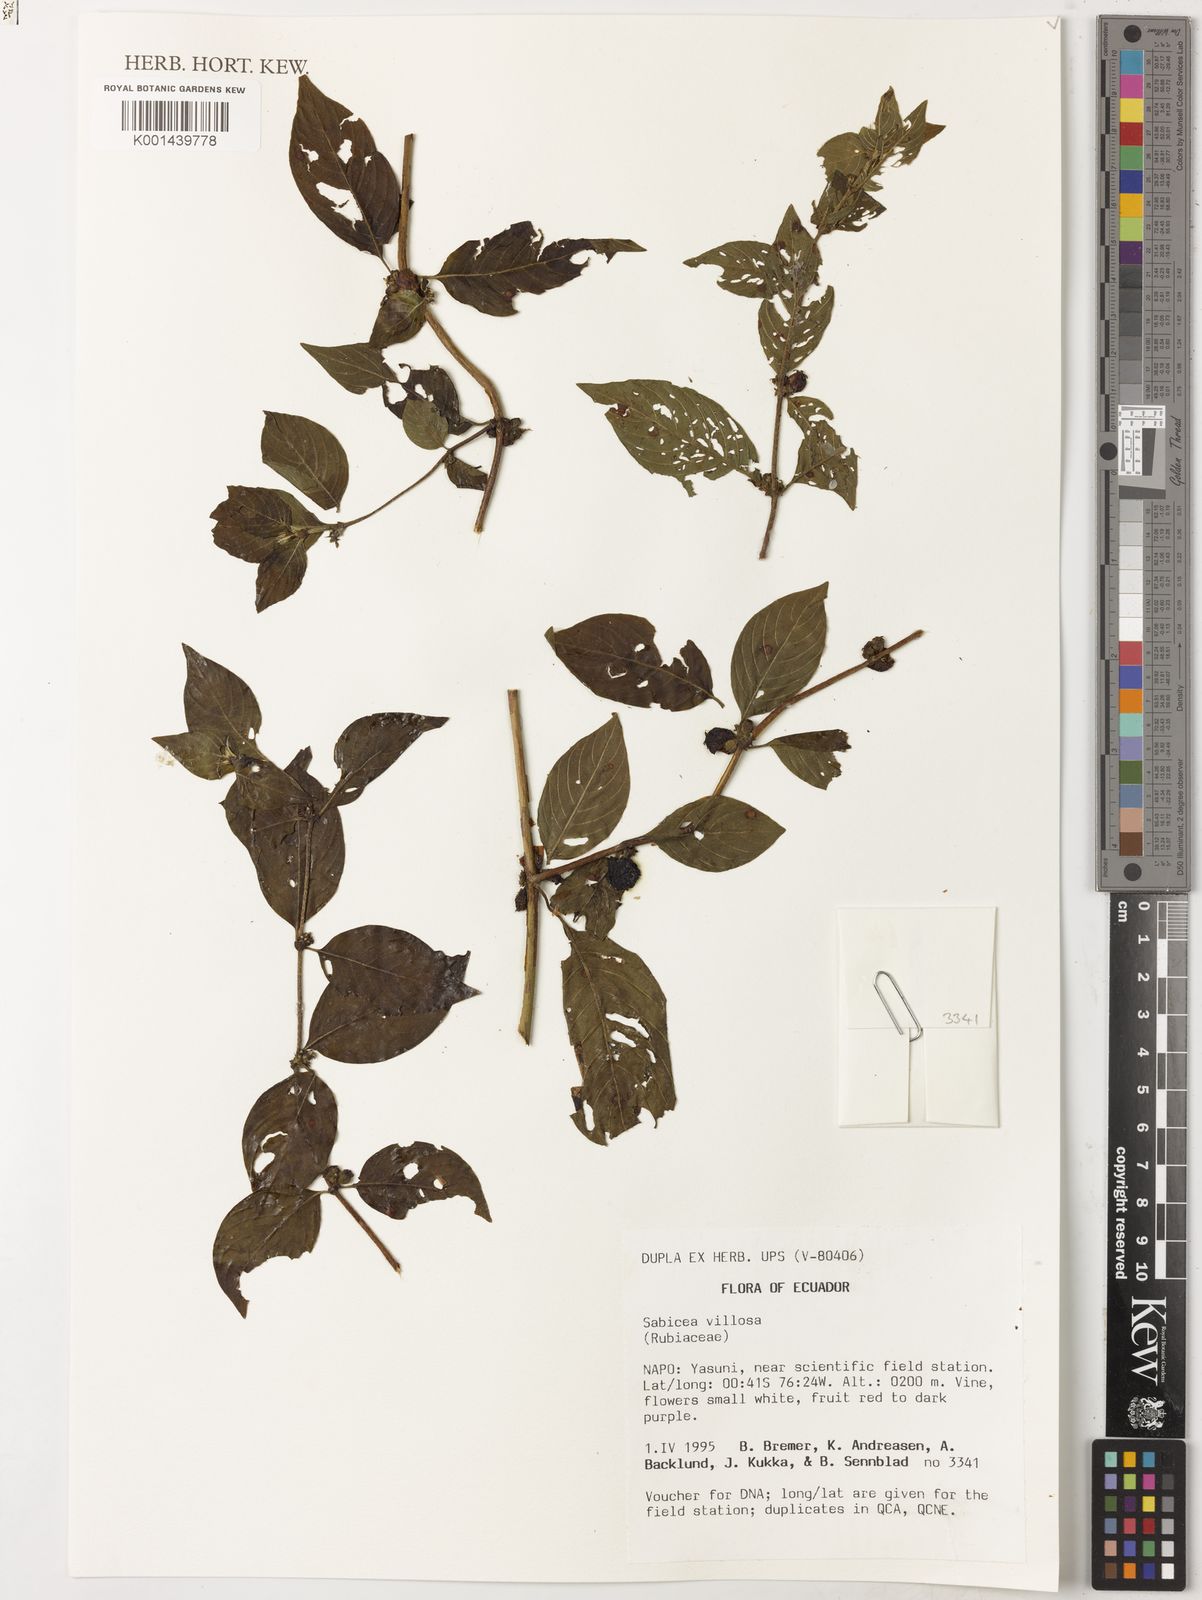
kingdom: Plantae
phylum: Tracheophyta
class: Magnoliopsida
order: Gentianales
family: Rubiaceae
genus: Sabicea
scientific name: Sabicea villosa
